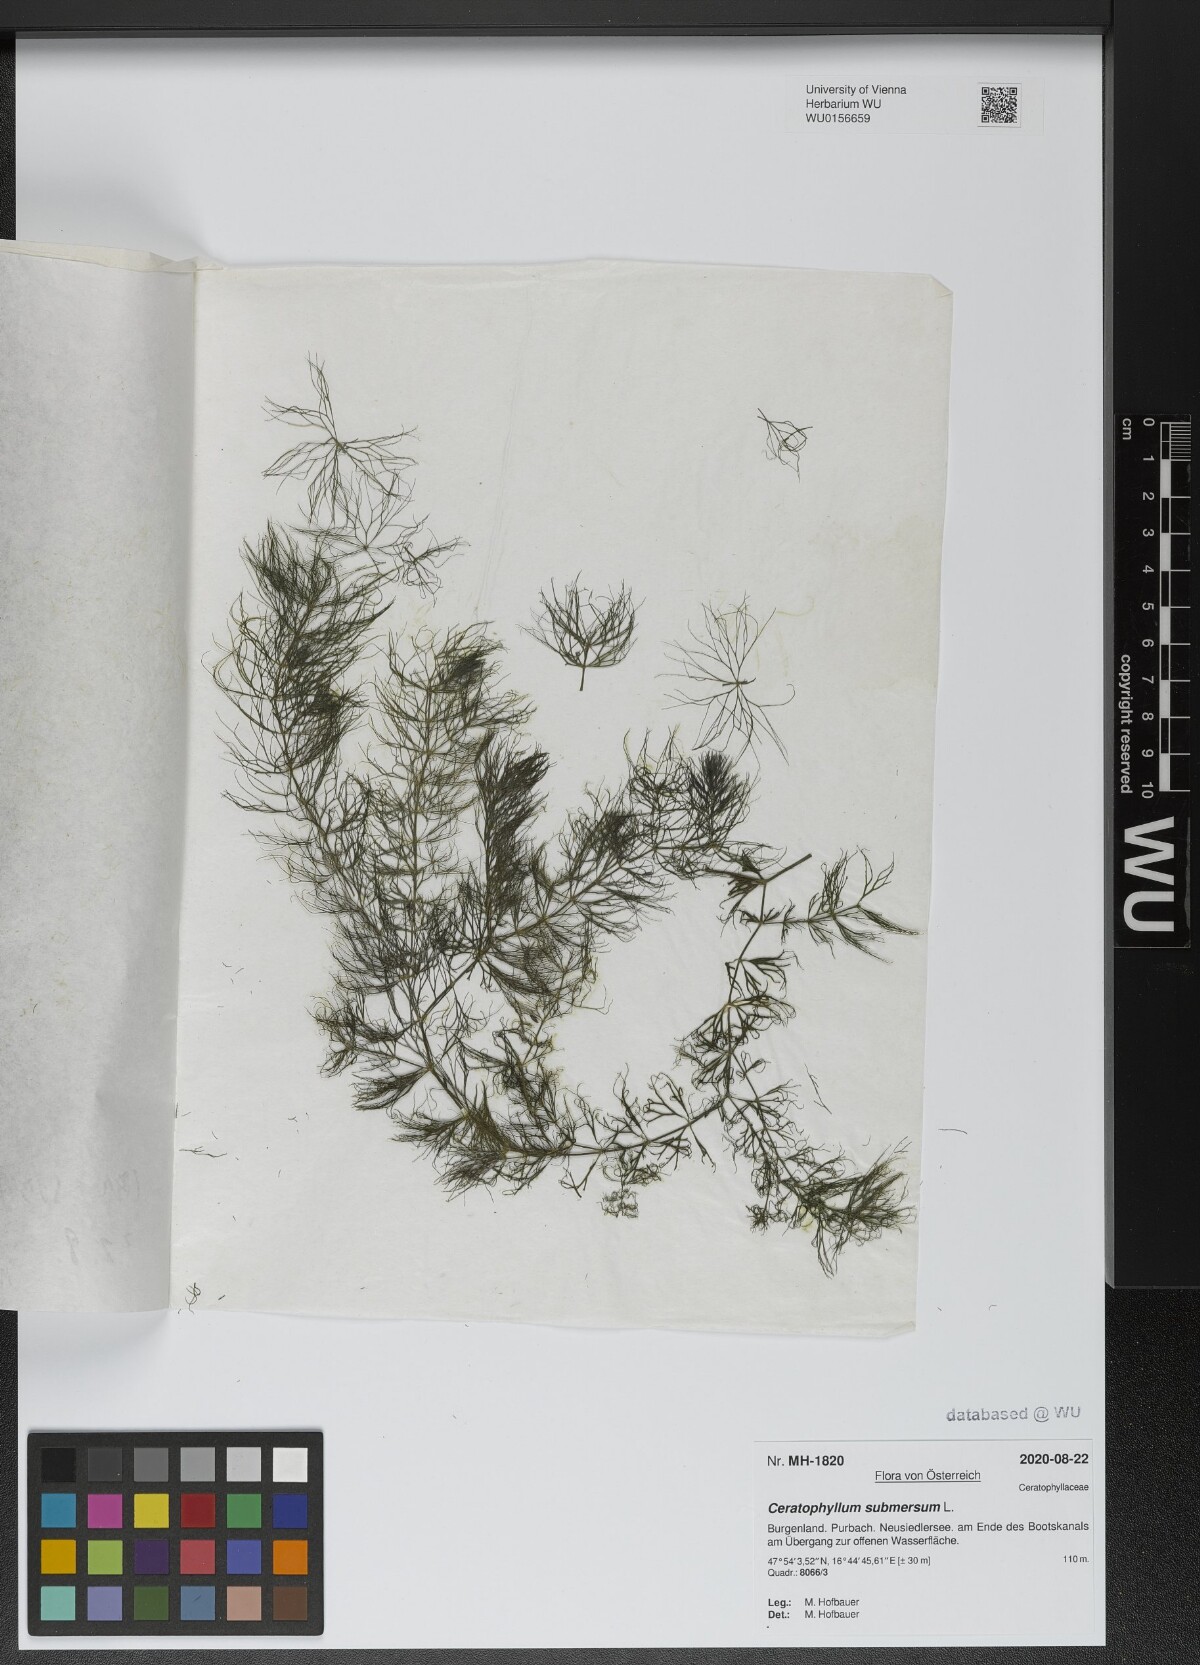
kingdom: Plantae
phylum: Tracheophyta
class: Magnoliopsida
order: Ceratophyllales
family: Ceratophyllaceae
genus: Ceratophyllum
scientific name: Ceratophyllum submersum
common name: Soft hornwort
